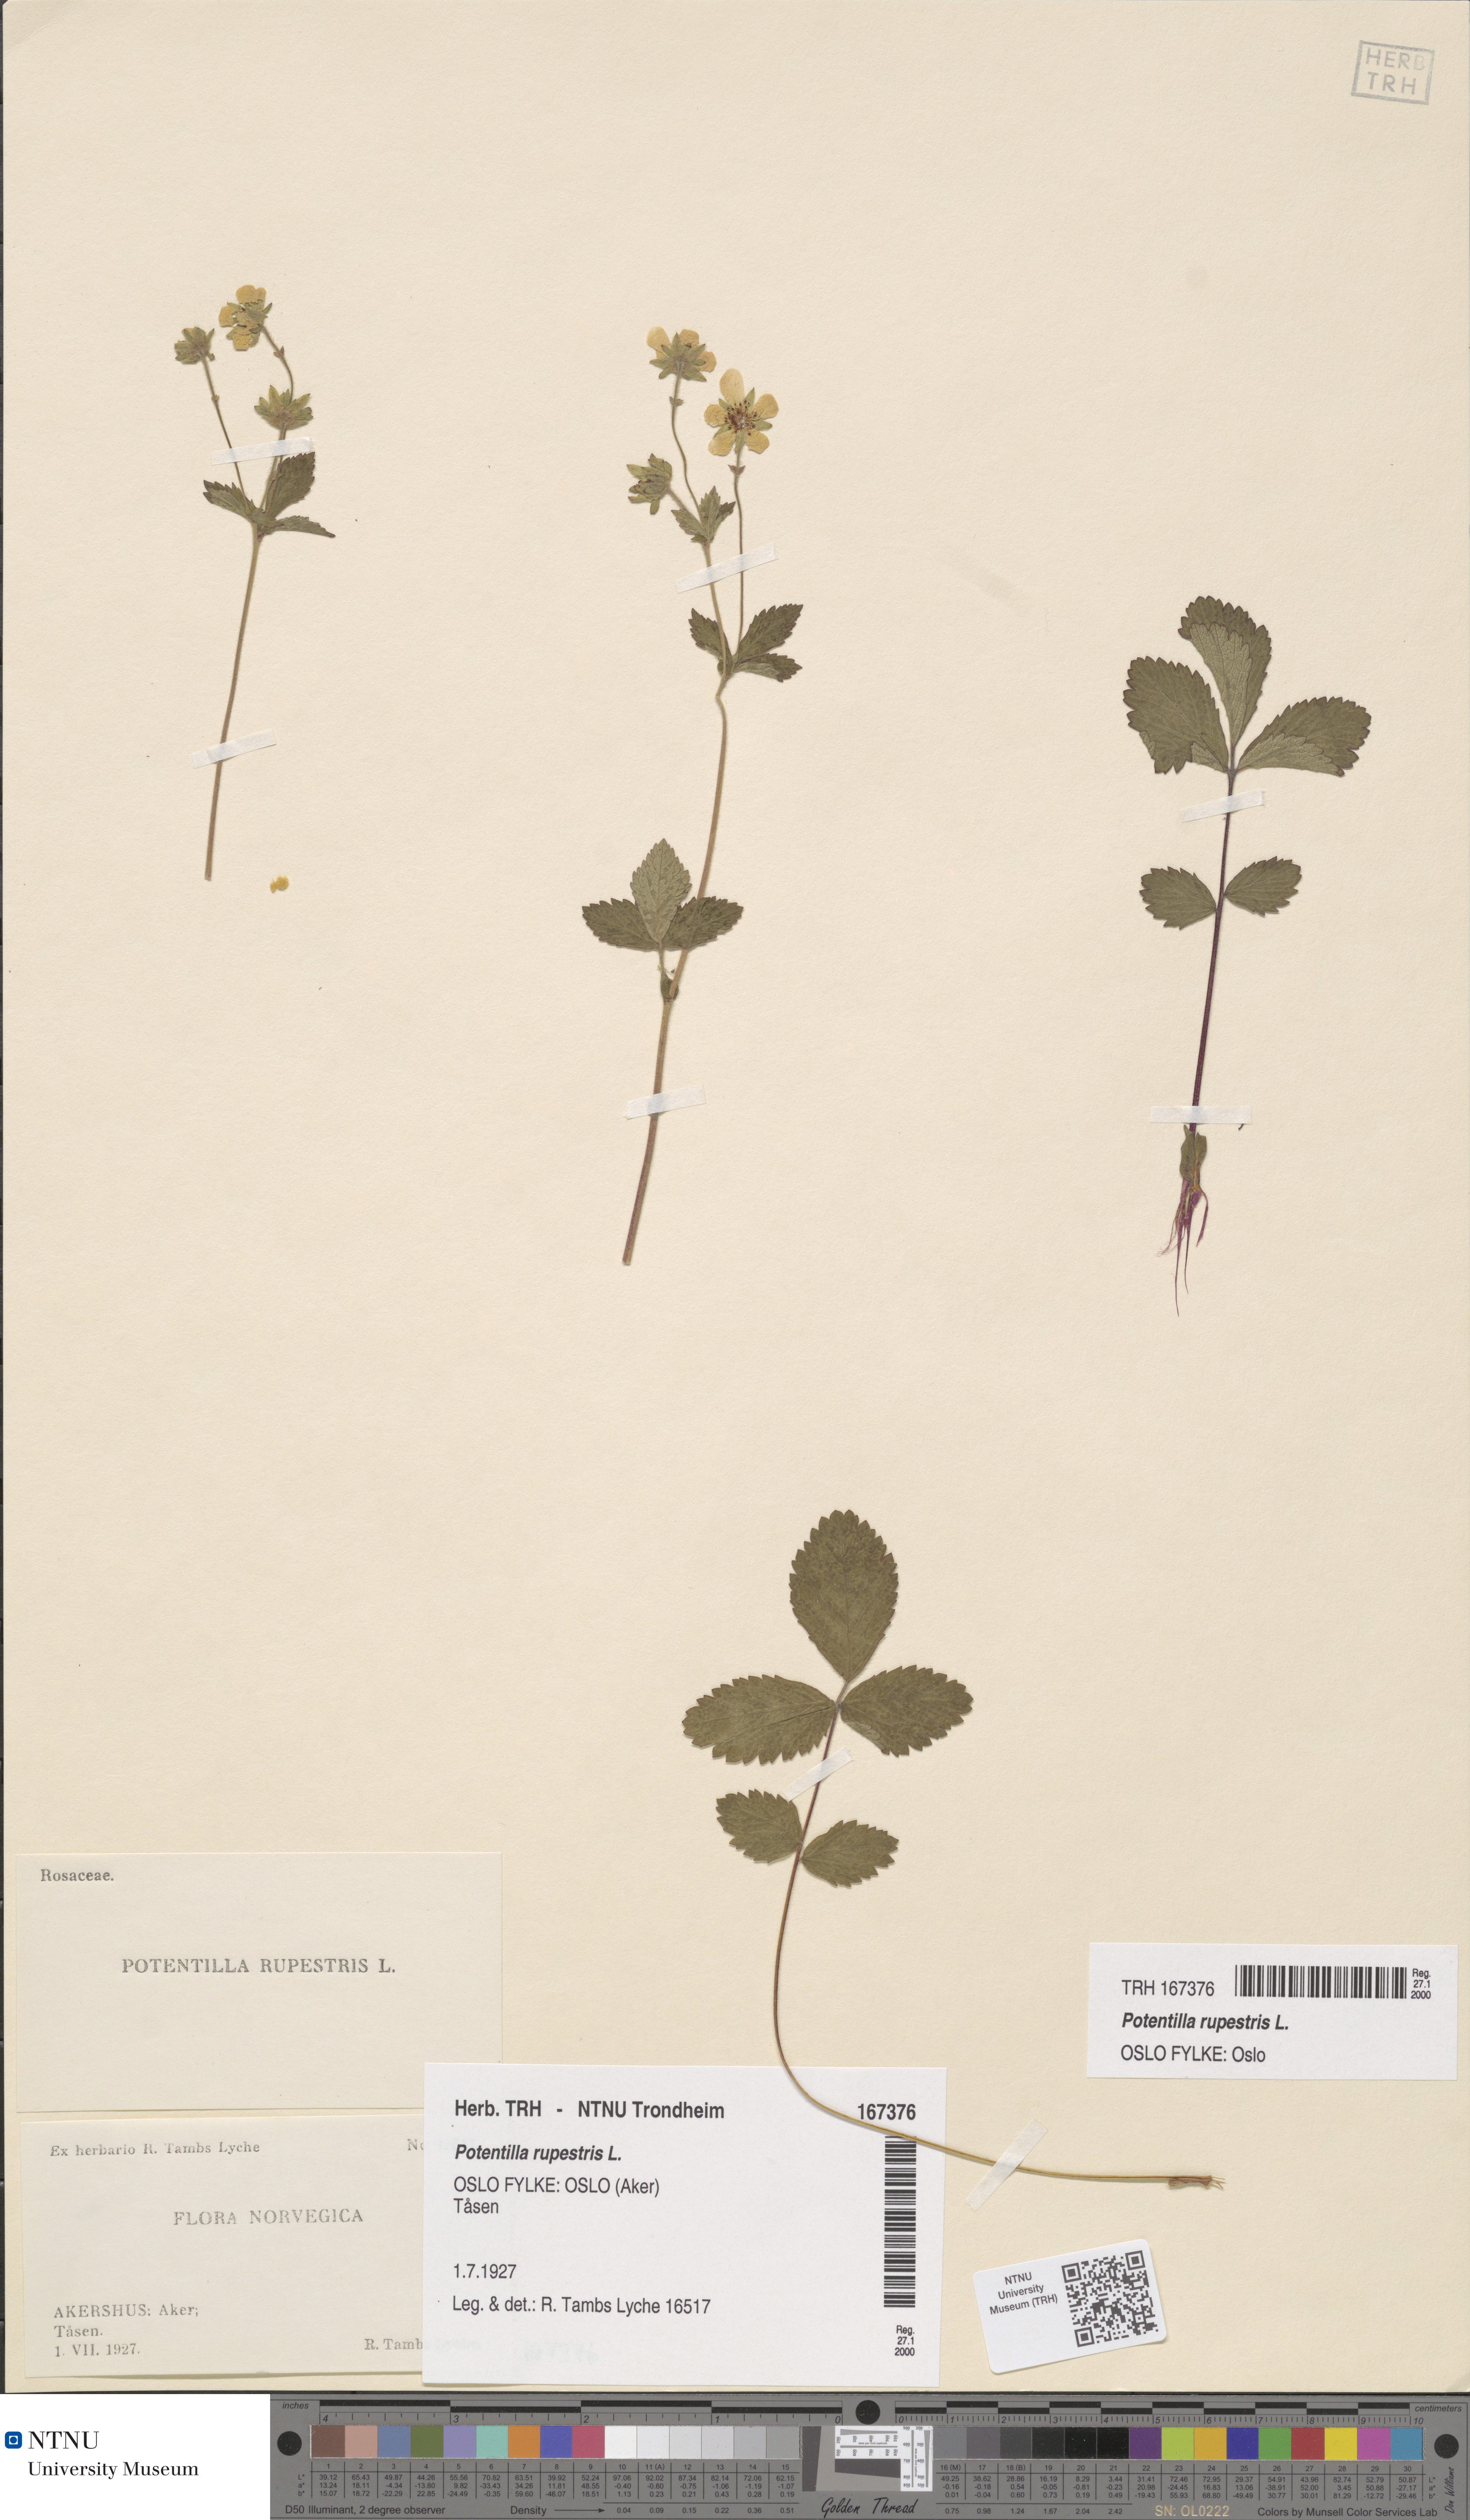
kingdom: Plantae
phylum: Tracheophyta
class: Magnoliopsida
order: Rosales
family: Rosaceae
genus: Drymocallis
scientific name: Drymocallis rupestris
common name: Rock cinquefoil
